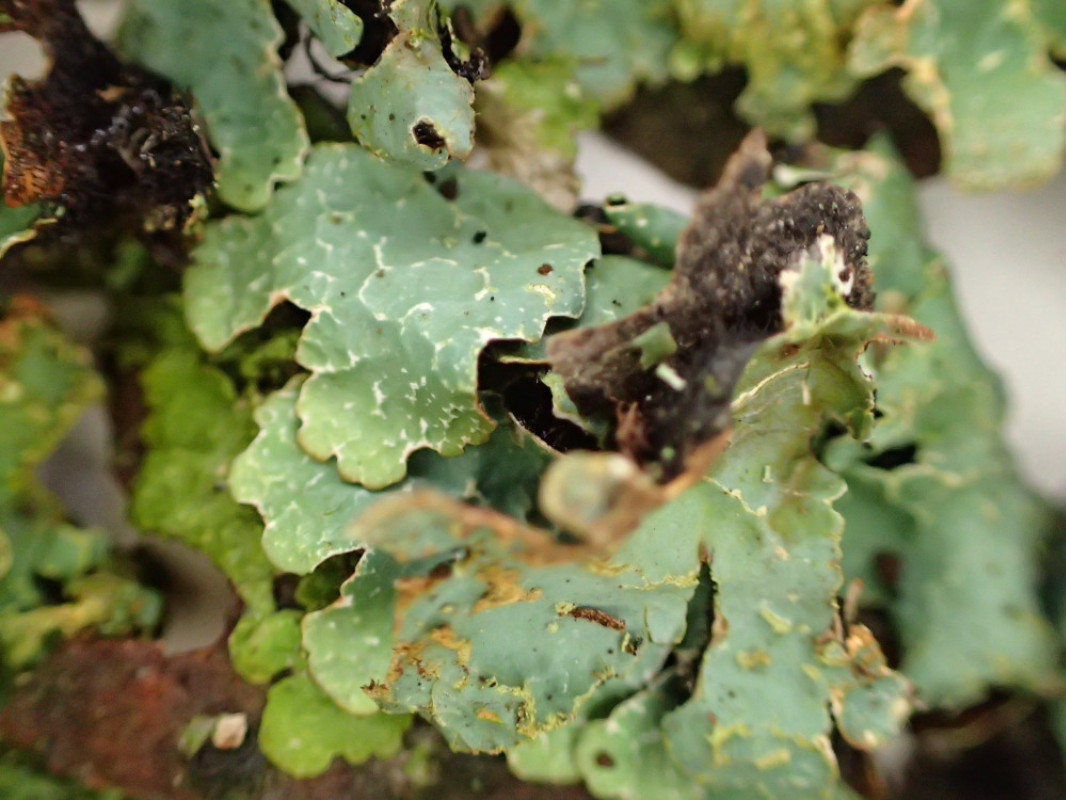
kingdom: Fungi
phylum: Ascomycota
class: Lecanoromycetes
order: Lecanorales
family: Parmeliaceae
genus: Parmelia
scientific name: Parmelia sulcata
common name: rynket skållav
